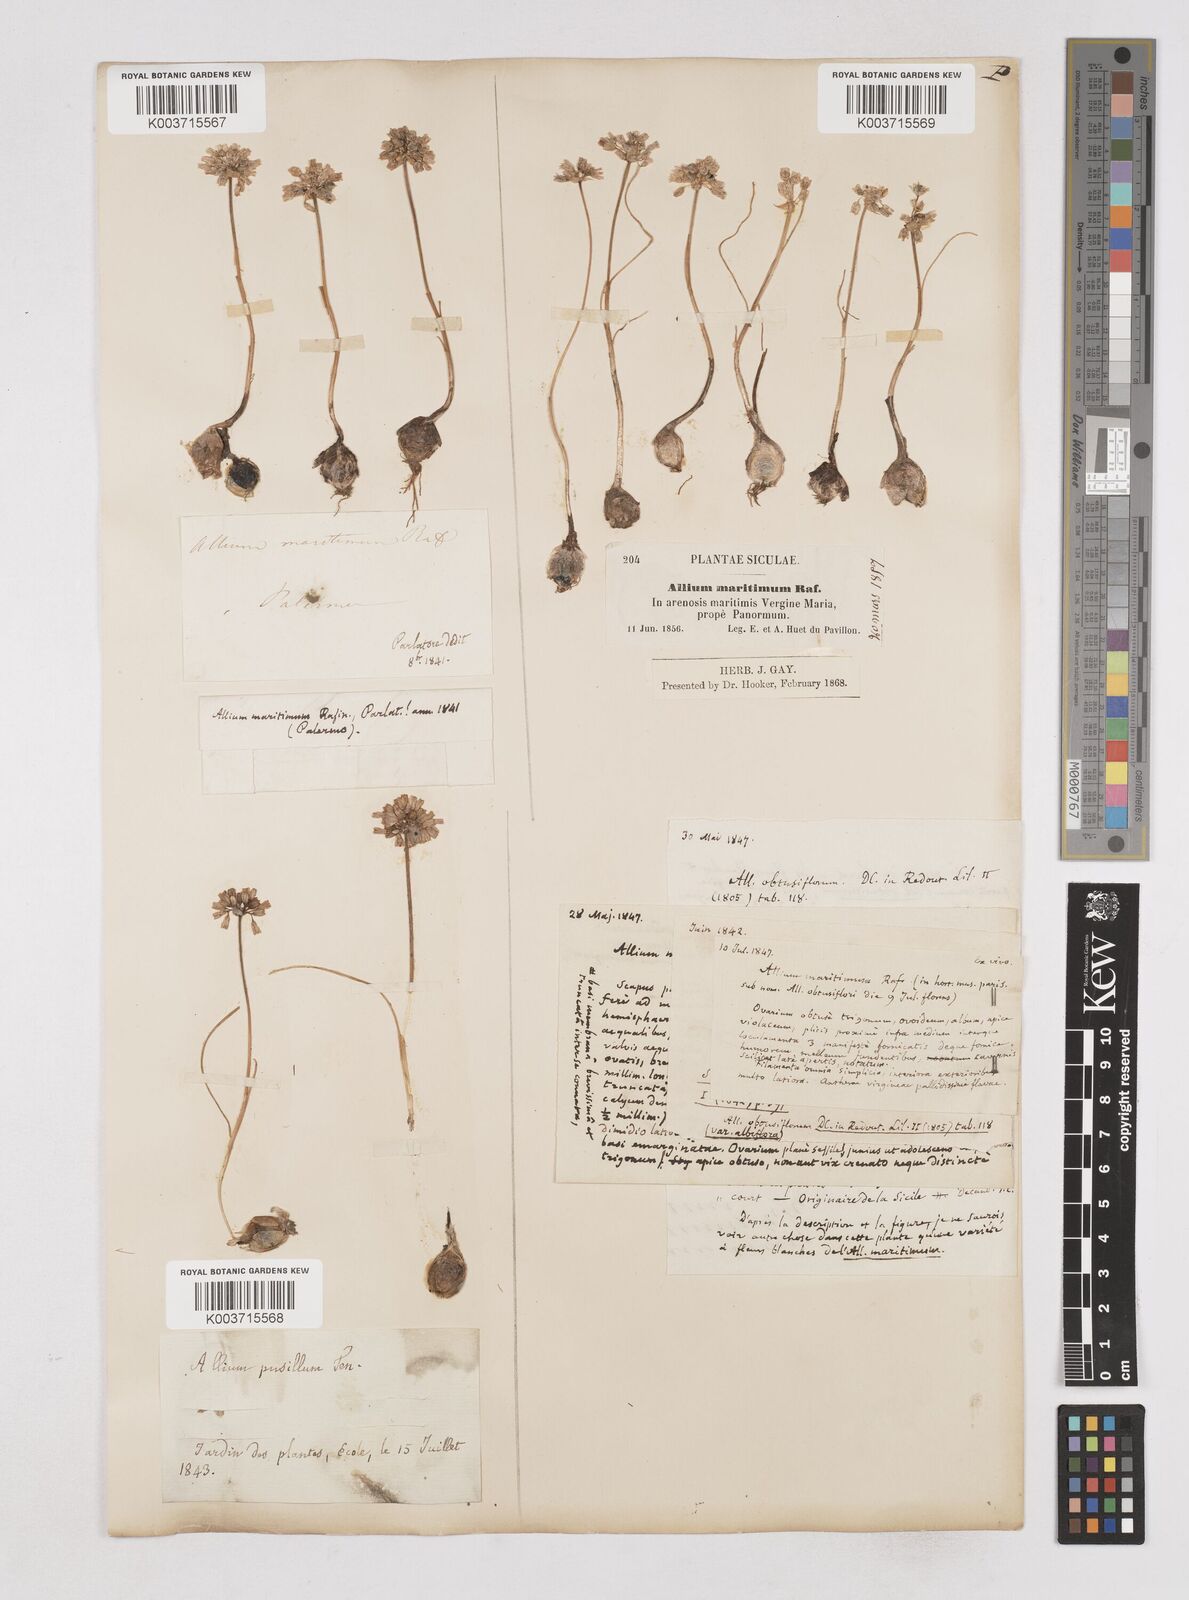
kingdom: Plantae
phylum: Tracheophyta
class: Liliopsida
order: Asparagales
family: Amaryllidaceae
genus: Allium
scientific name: Allium
